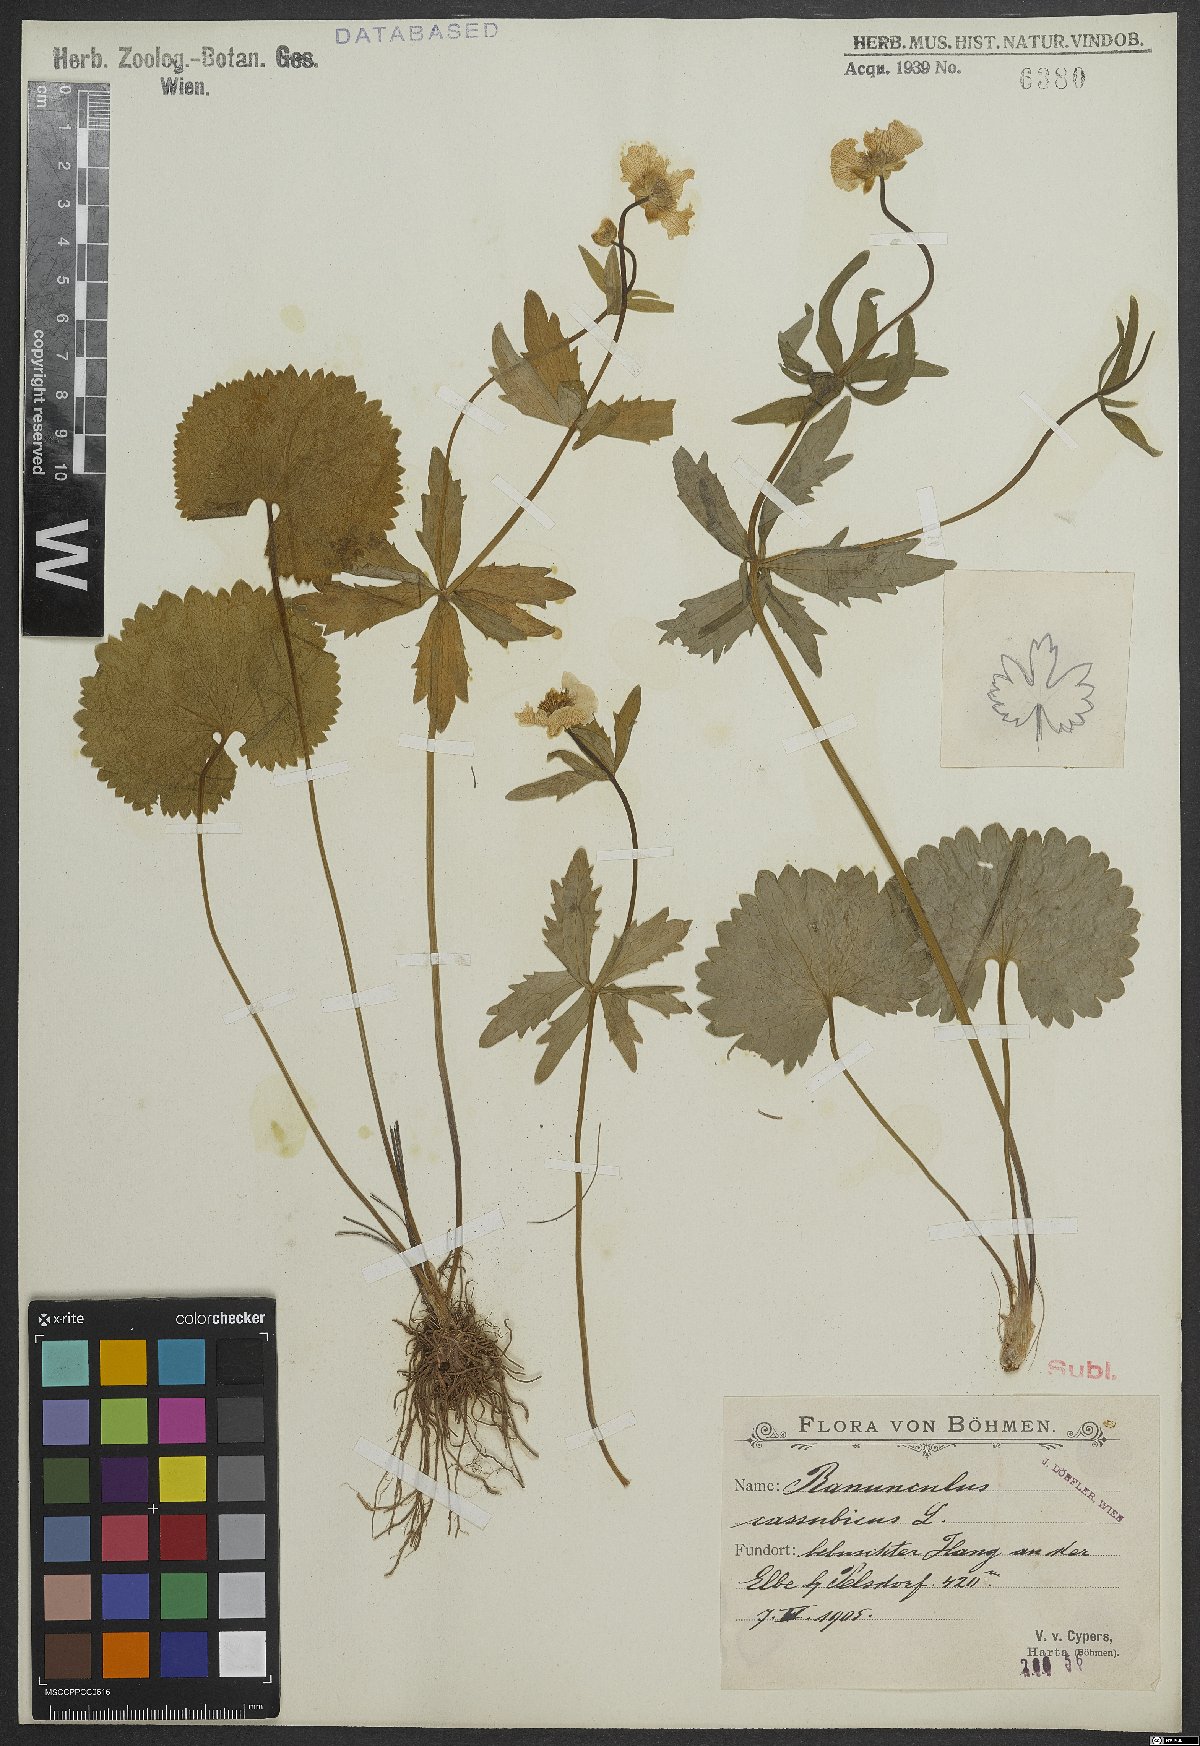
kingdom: Plantae
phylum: Tracheophyta
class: Magnoliopsida
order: Ranunculales
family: Ranunculaceae
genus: Ranunculus
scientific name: Ranunculus cassubicus
